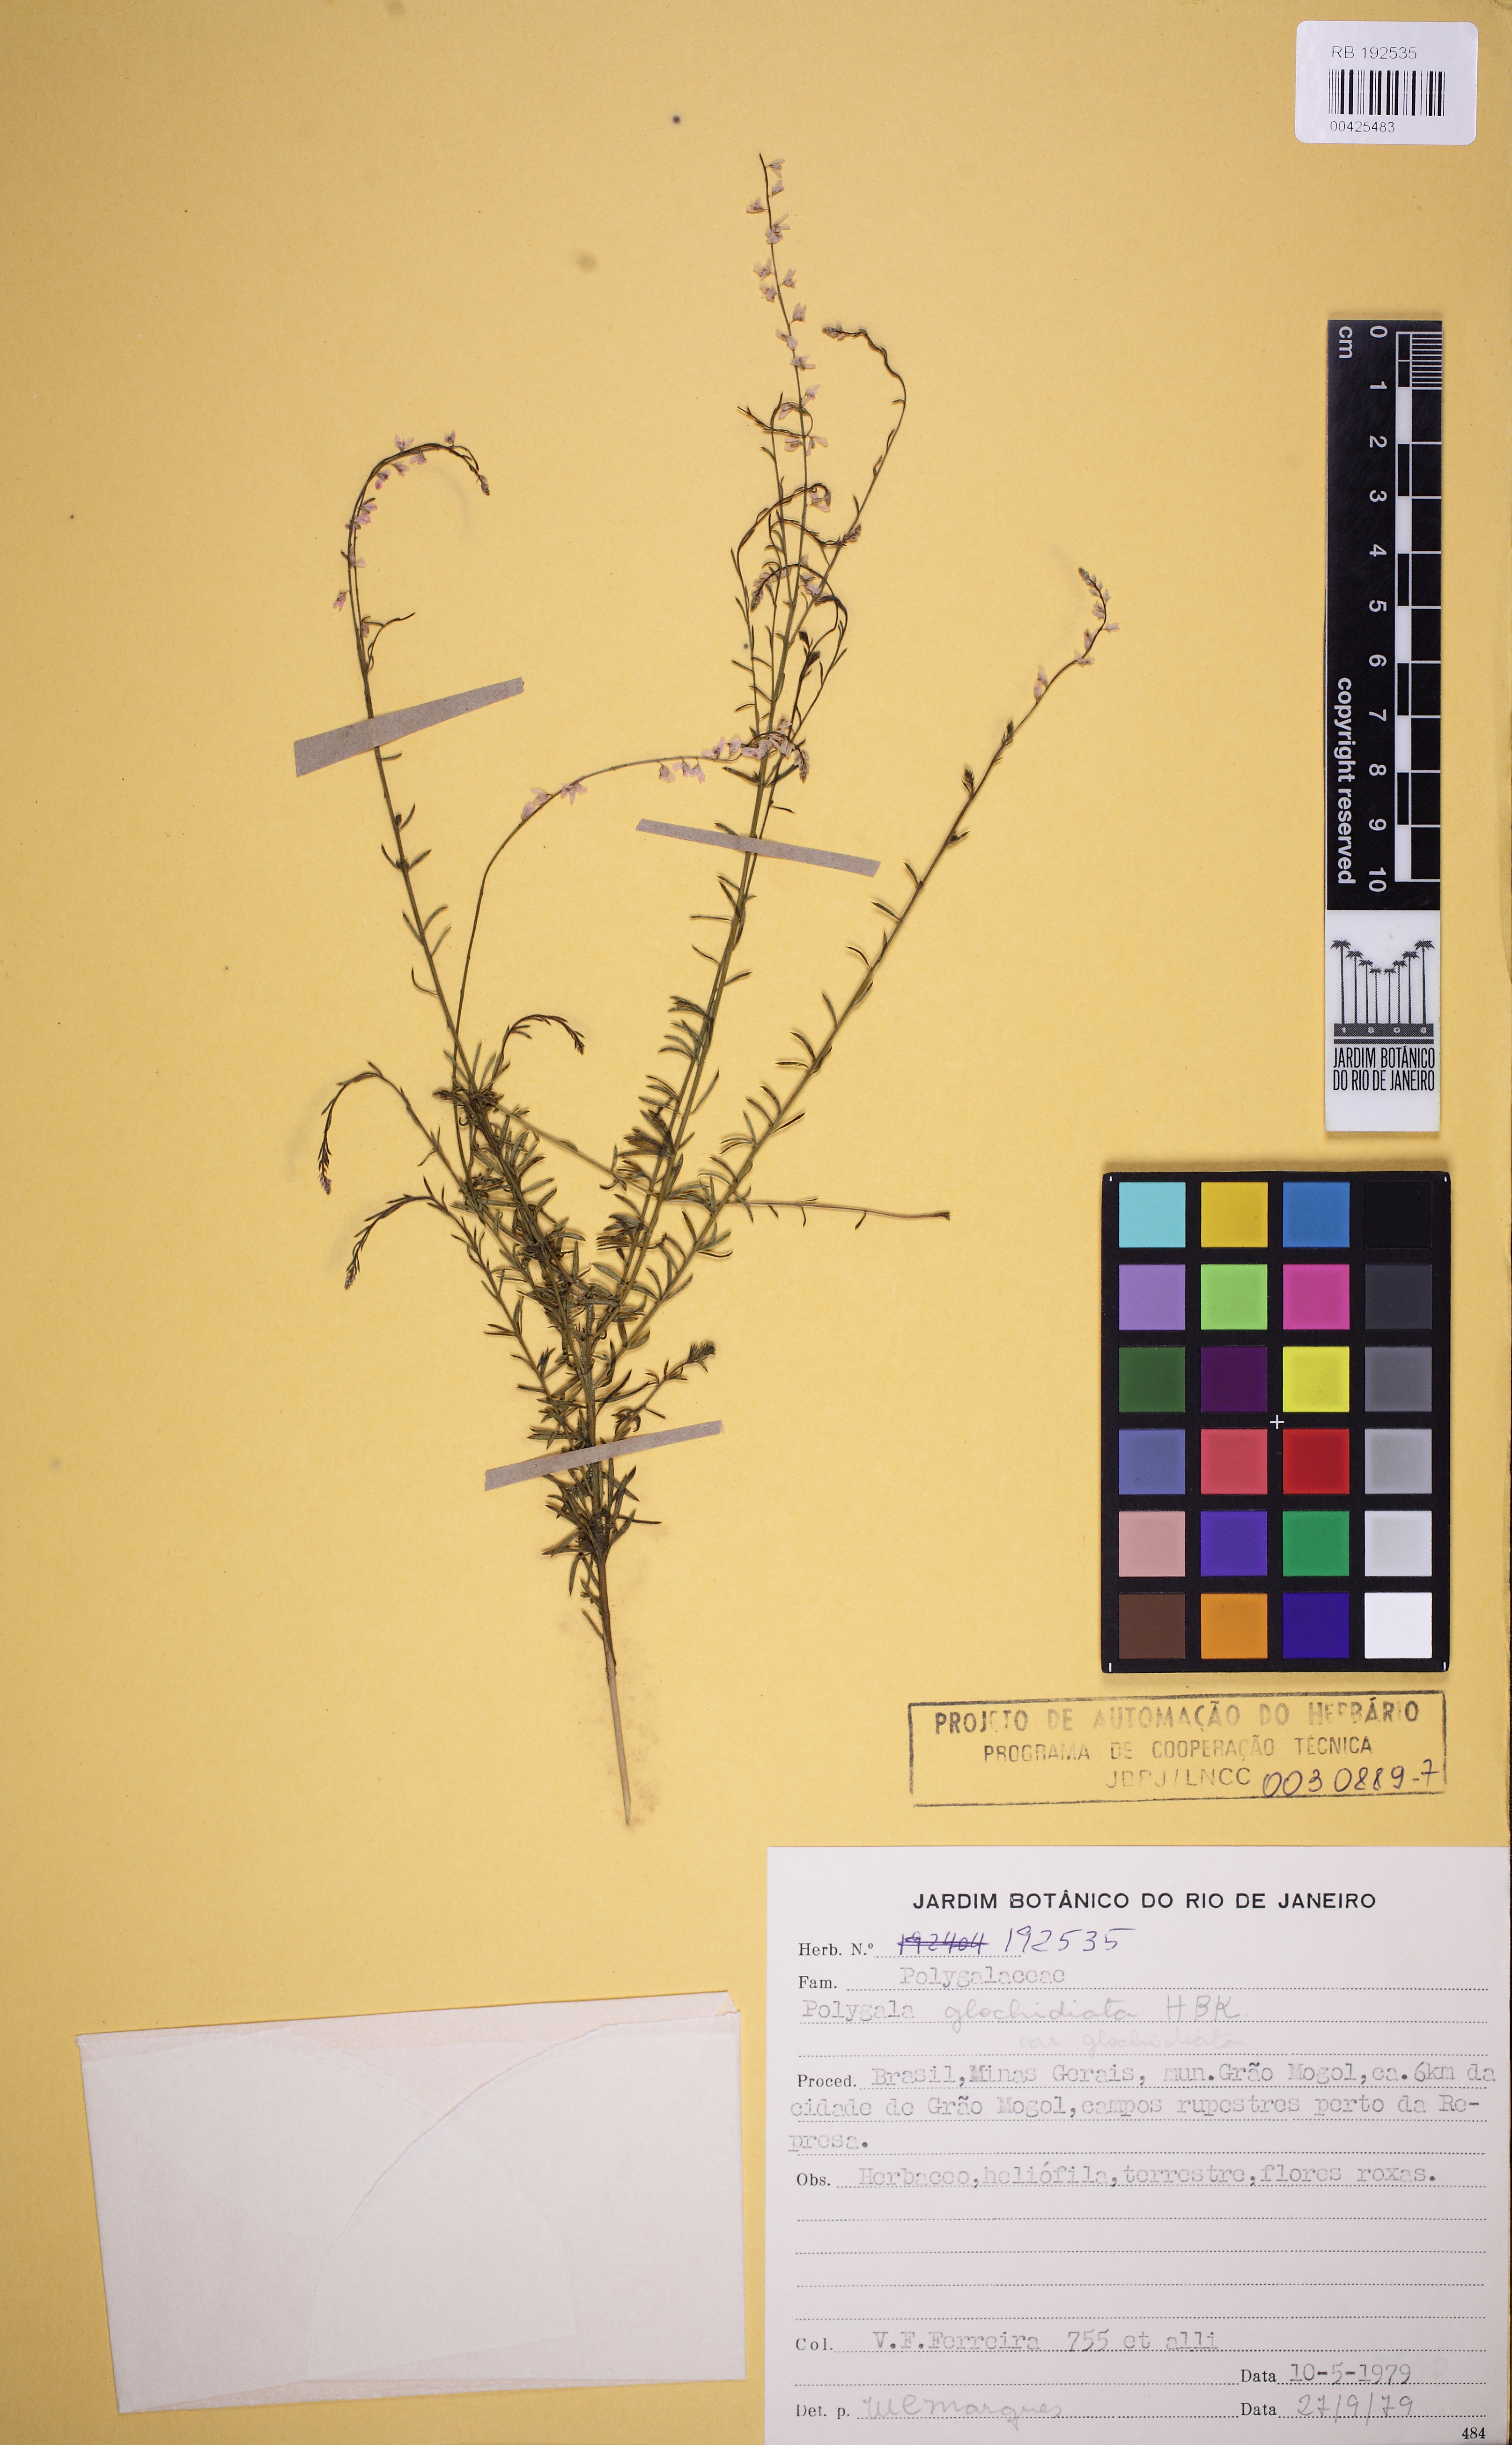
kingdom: Plantae
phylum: Tracheophyta
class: Magnoliopsida
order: Fabales
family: Polygalaceae
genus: Polygala
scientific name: Polygala glochidiata
